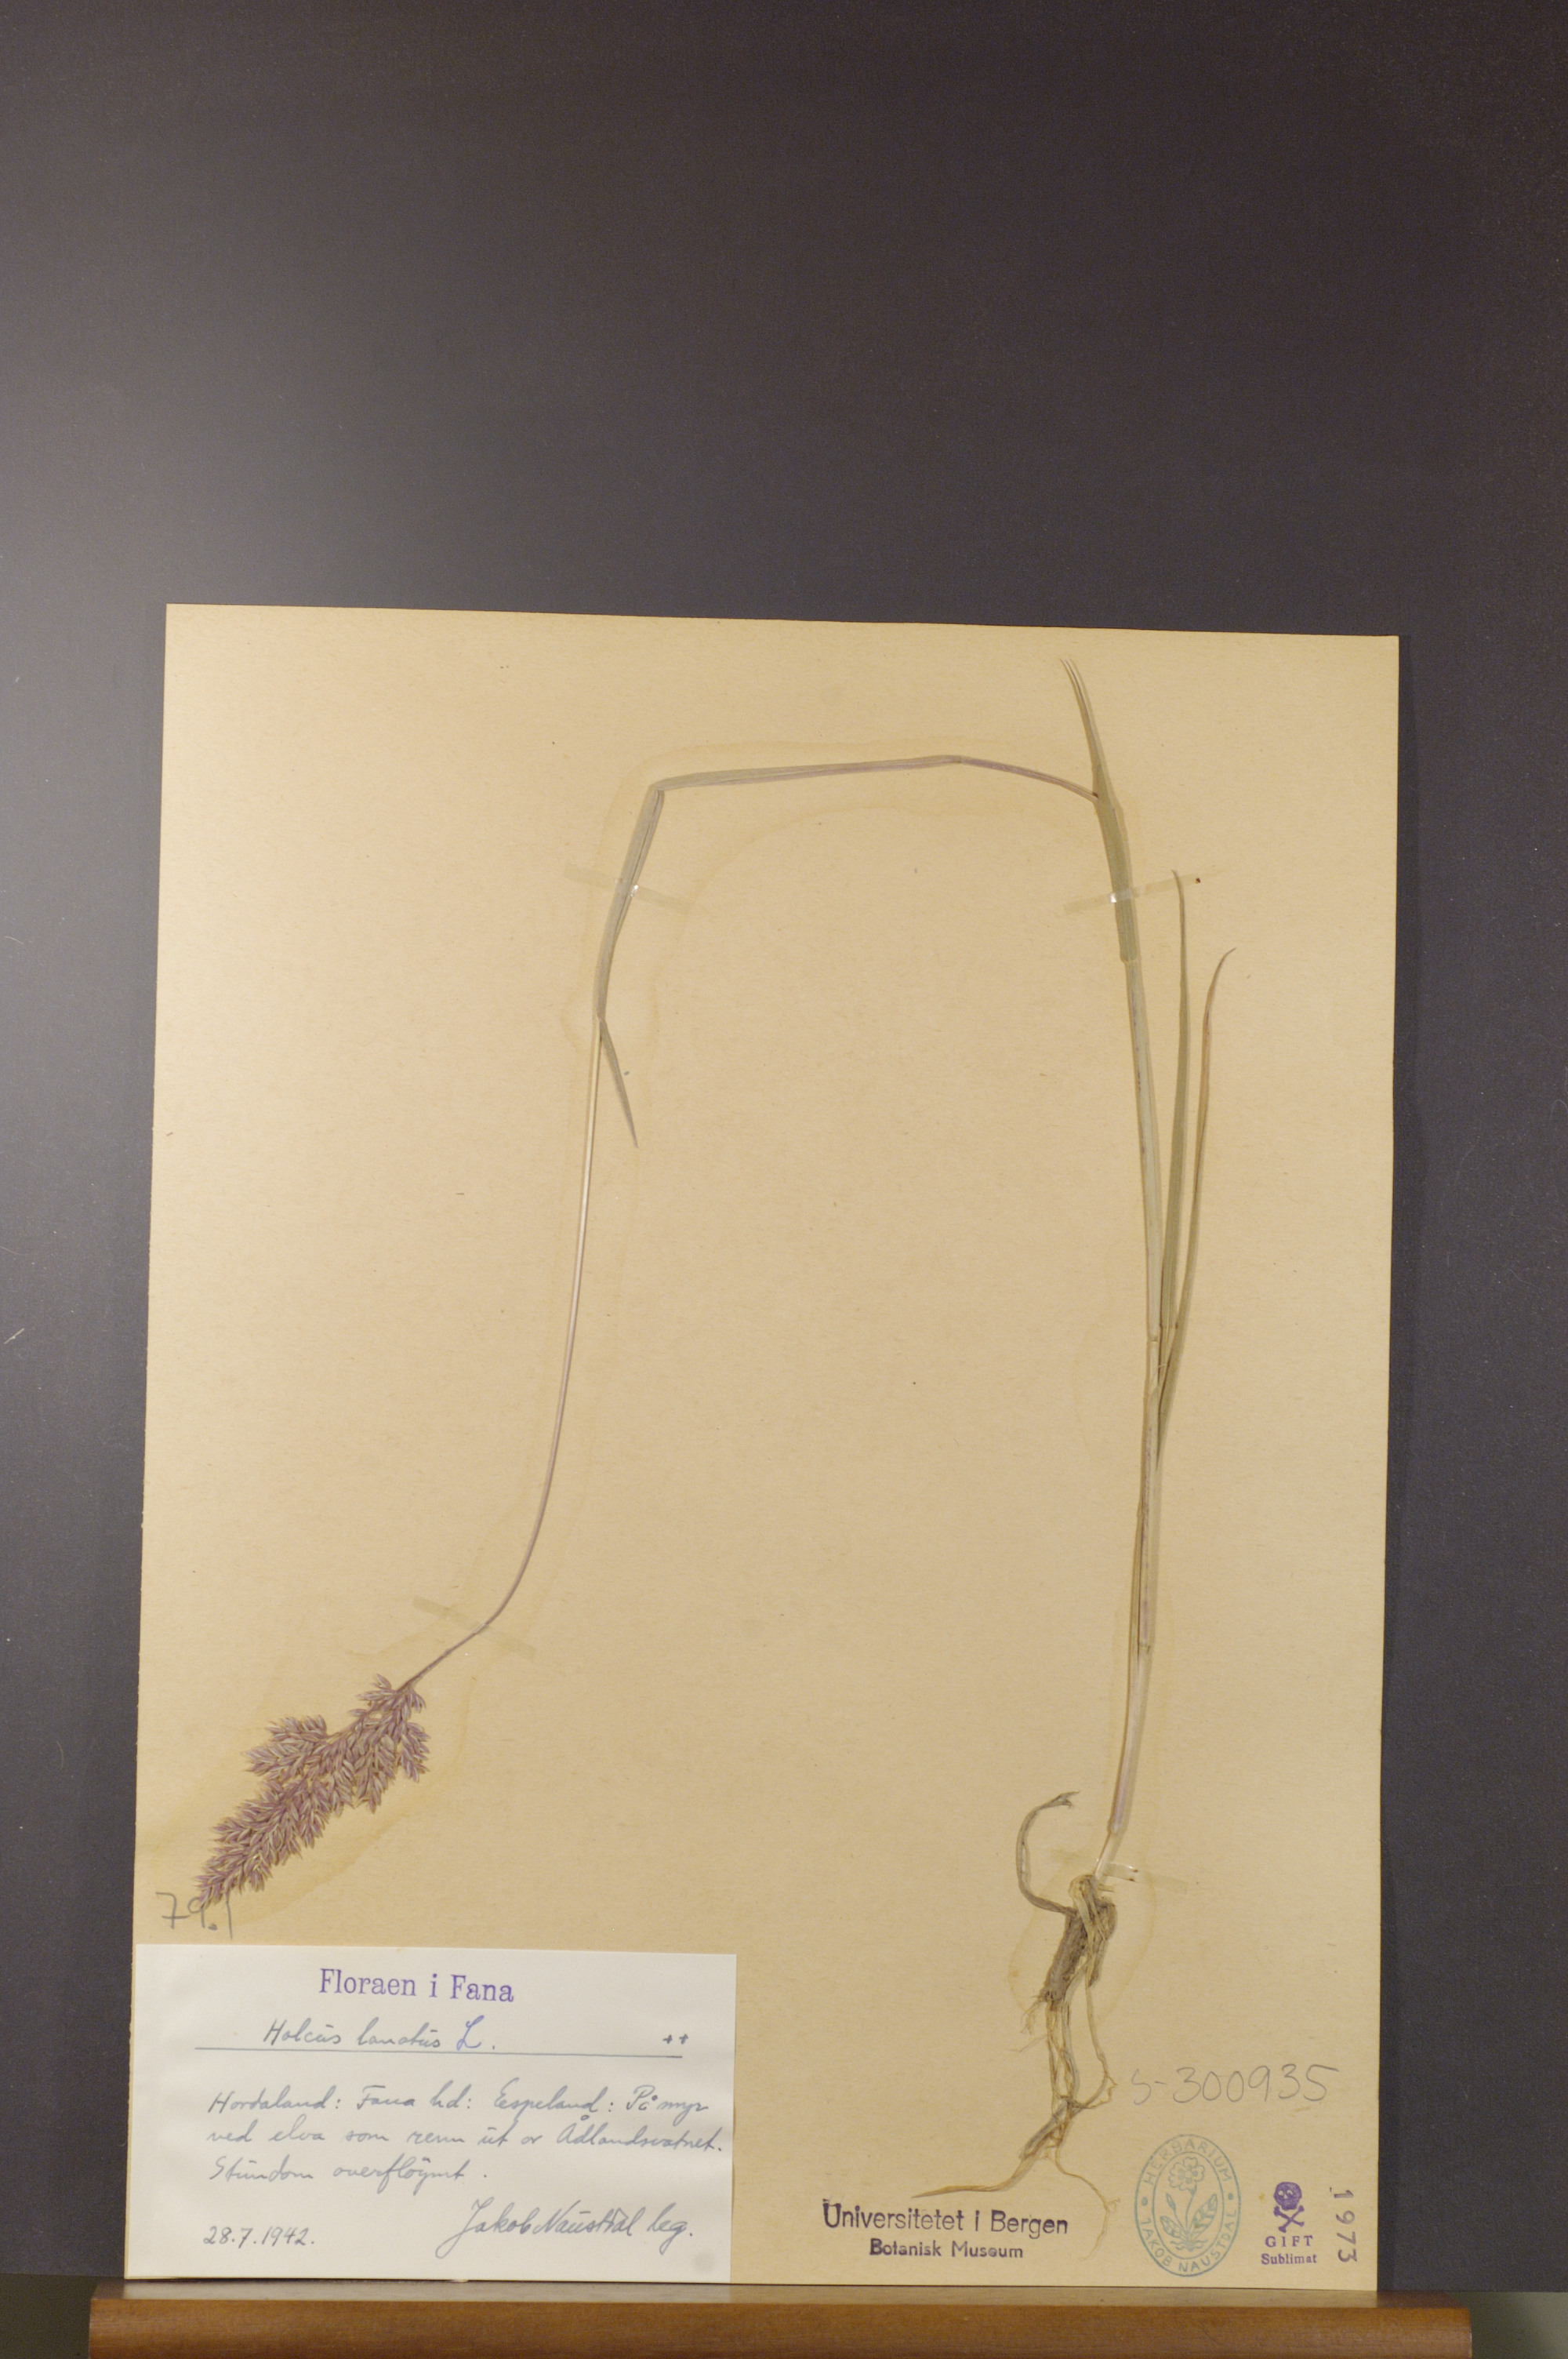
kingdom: Plantae
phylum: Tracheophyta
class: Liliopsida
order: Poales
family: Poaceae
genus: Holcus
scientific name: Holcus lanatus
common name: Yorkshire-fog
